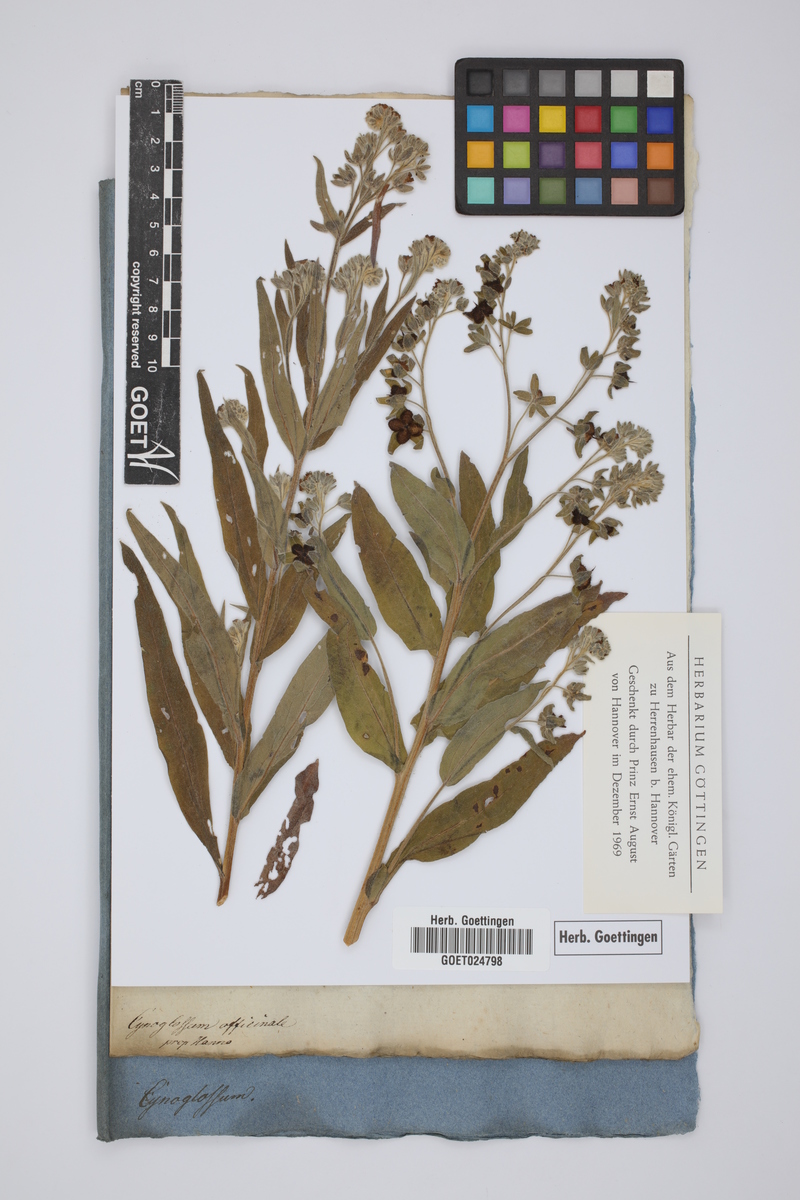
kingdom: Plantae
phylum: Tracheophyta
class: Magnoliopsida
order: Boraginales
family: Boraginaceae
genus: Cynoglossum
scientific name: Cynoglossum officinale
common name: Hound's-tongue
